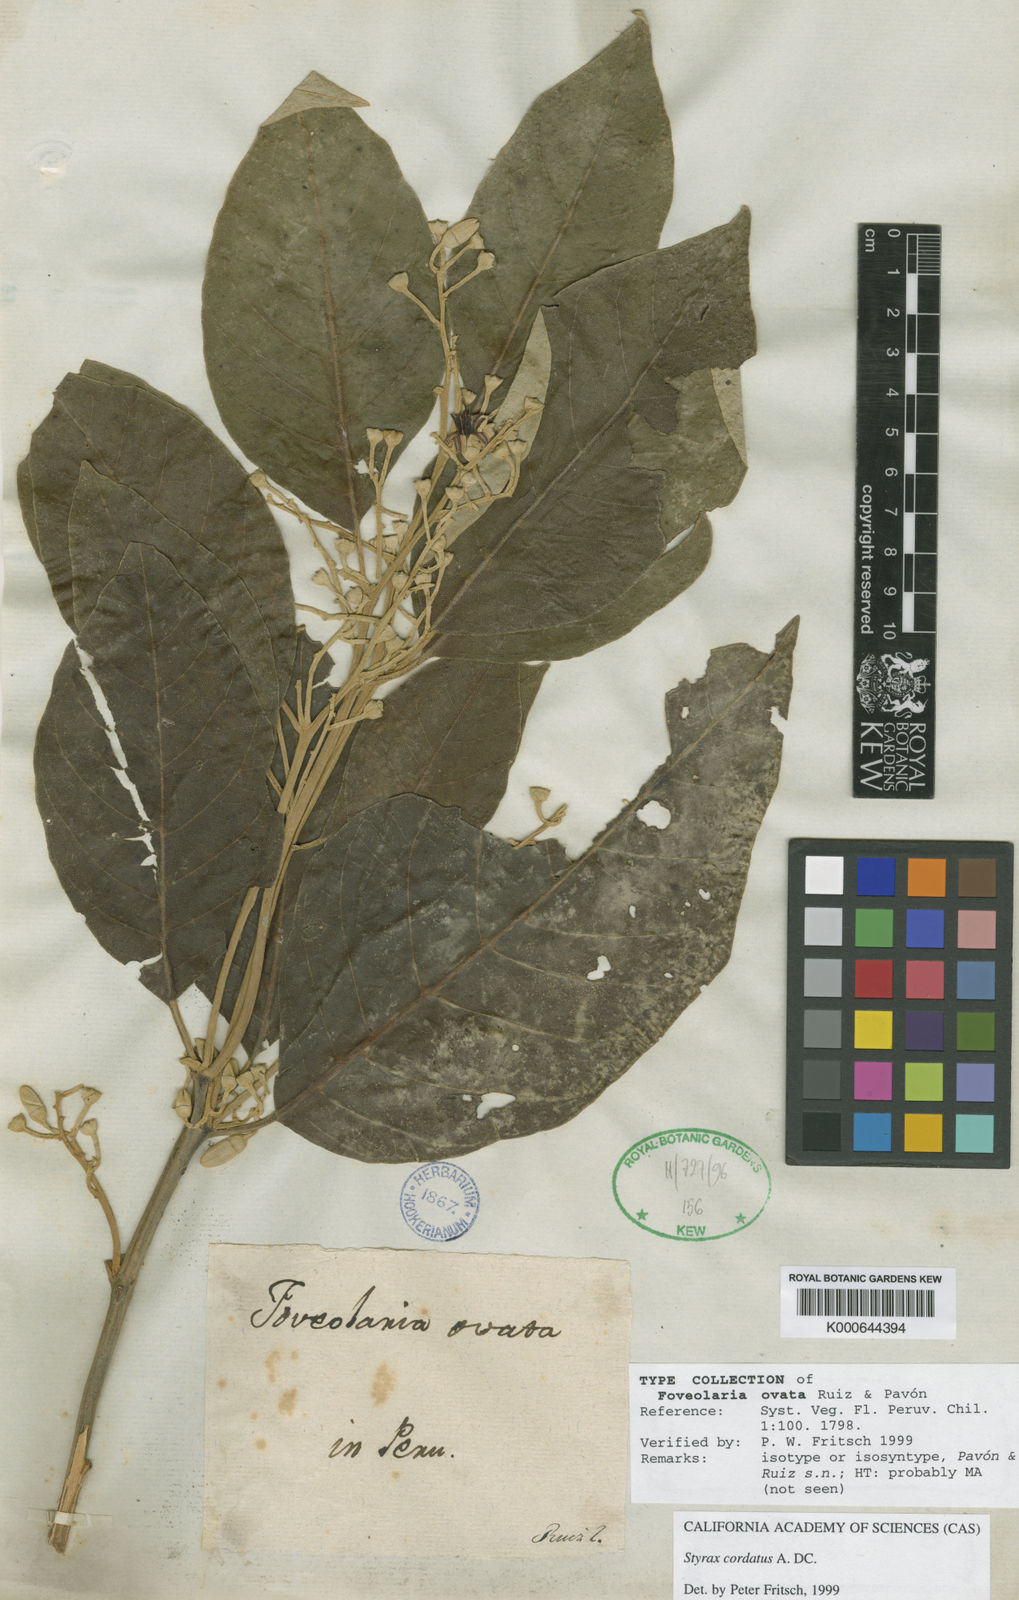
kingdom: Plantae
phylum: Tracheophyta
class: Magnoliopsida
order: Ericales
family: Styracaceae
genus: Styrax
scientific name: Styrax pavonii
